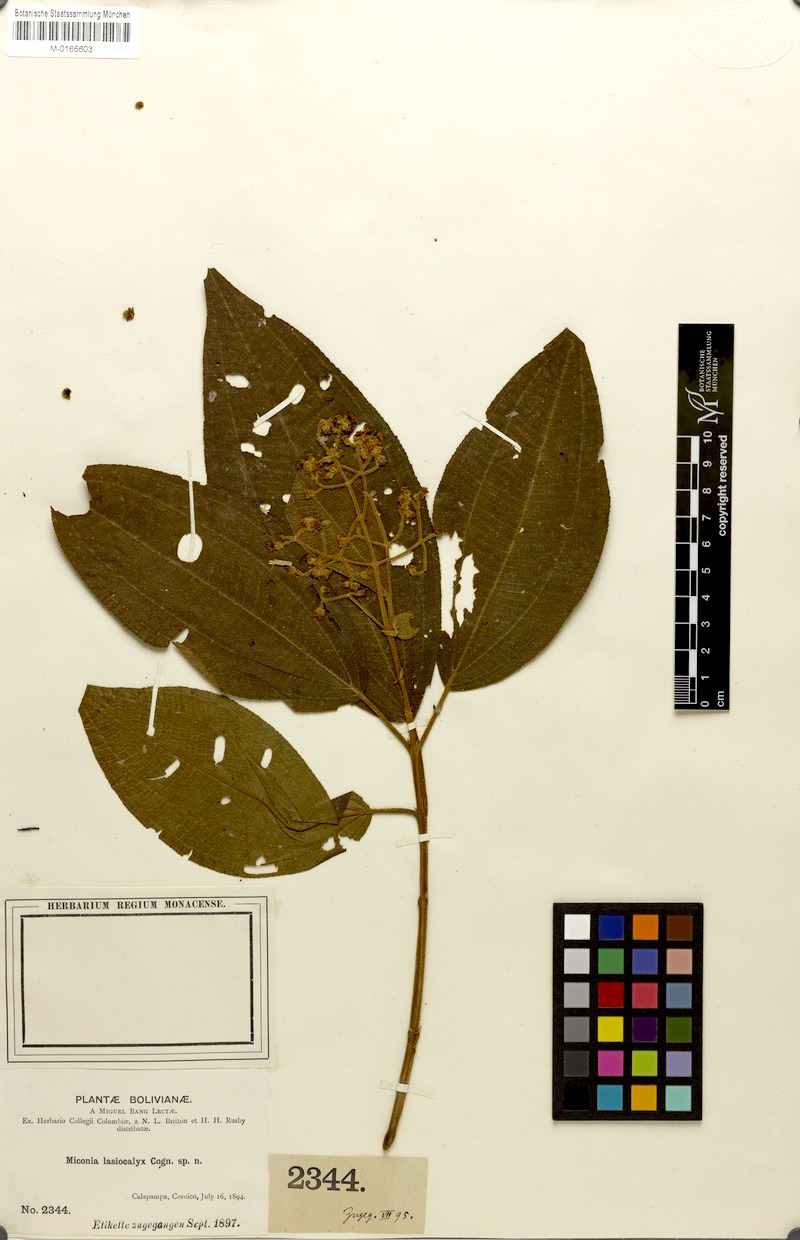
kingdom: Plantae
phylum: Tracheophyta
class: Magnoliopsida
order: Myrtales
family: Melastomataceae
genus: Miconia
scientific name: Miconia lasiocalyx
